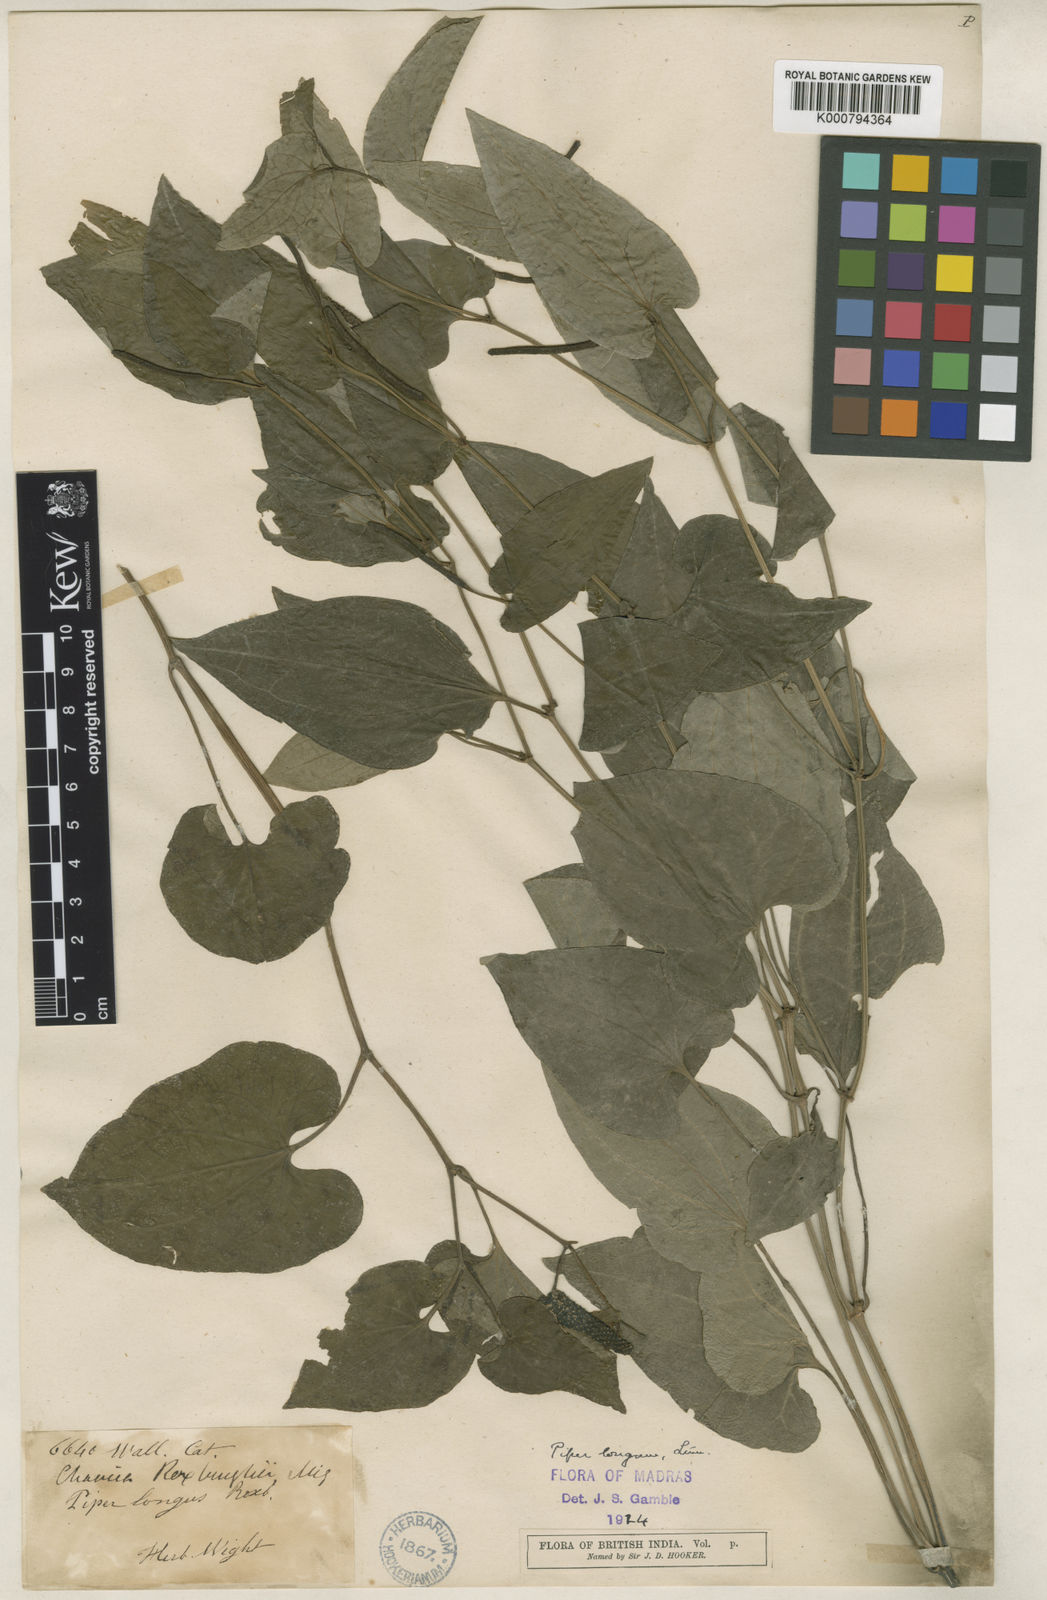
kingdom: Plantae
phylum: Tracheophyta
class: Magnoliopsida
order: Piperales
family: Piperaceae
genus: Piper
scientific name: Piper longum
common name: Long pepper
